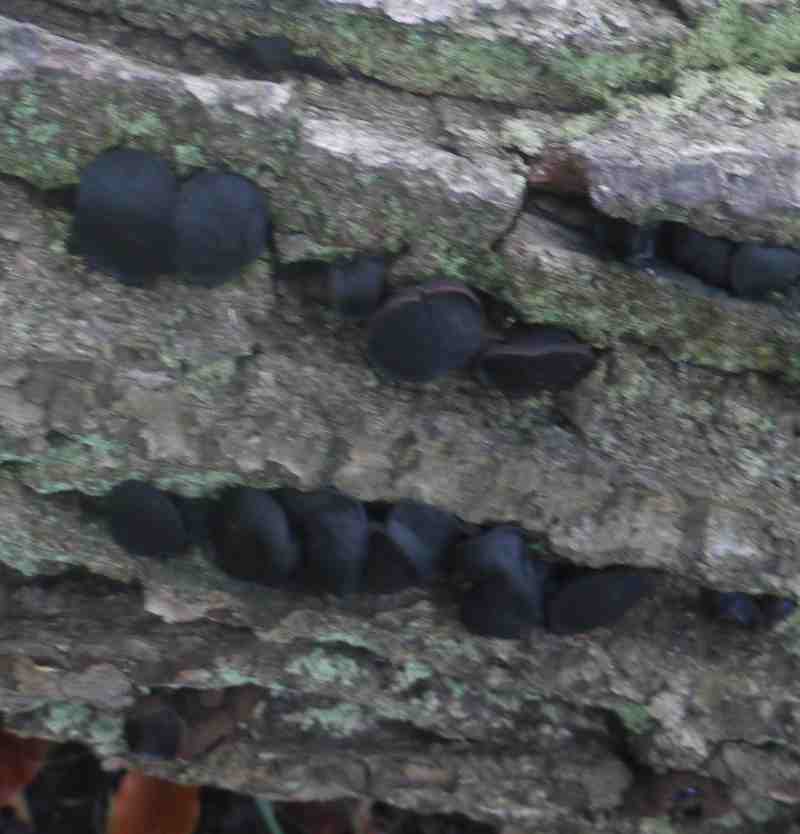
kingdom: Fungi
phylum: Ascomycota
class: Leotiomycetes
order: Phacidiales
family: Phacidiaceae
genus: Bulgaria
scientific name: Bulgaria inquinans
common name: afsmittende topsvamp
